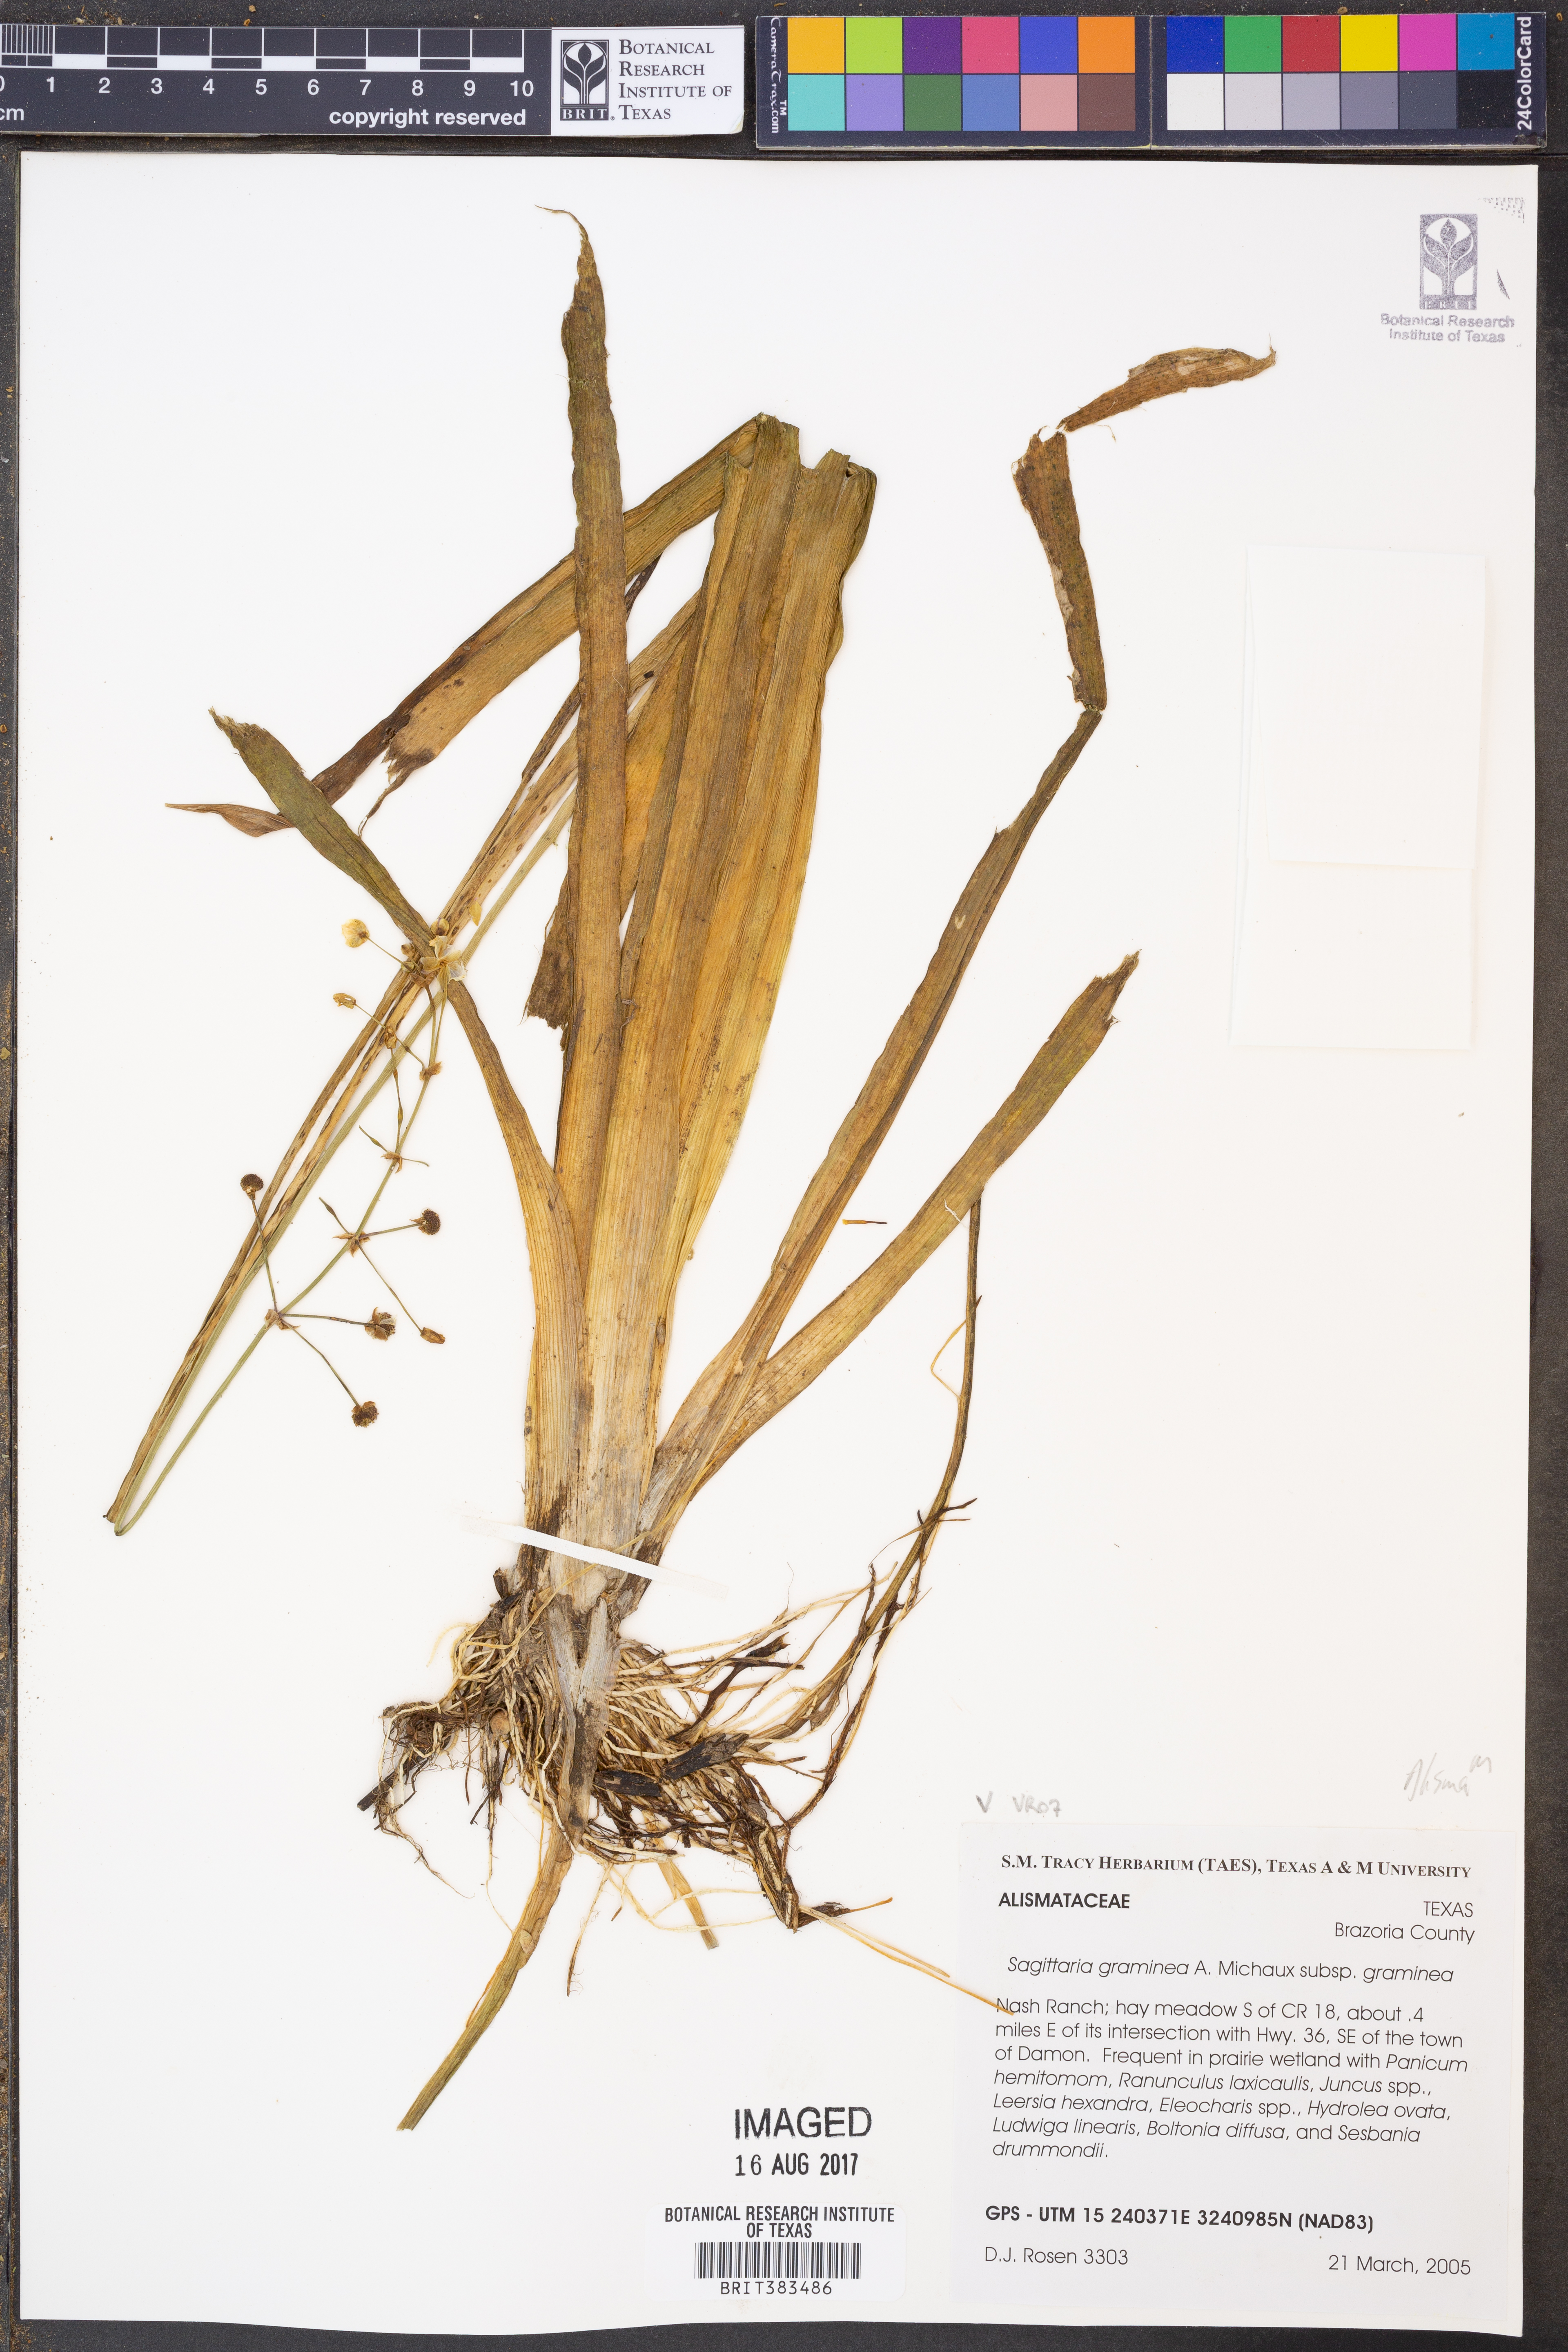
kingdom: Plantae
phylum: Tracheophyta
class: Liliopsida
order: Alismatales
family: Alismataceae
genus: Sagittaria
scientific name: Sagittaria graminea
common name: Grass-leaved arrowhead
